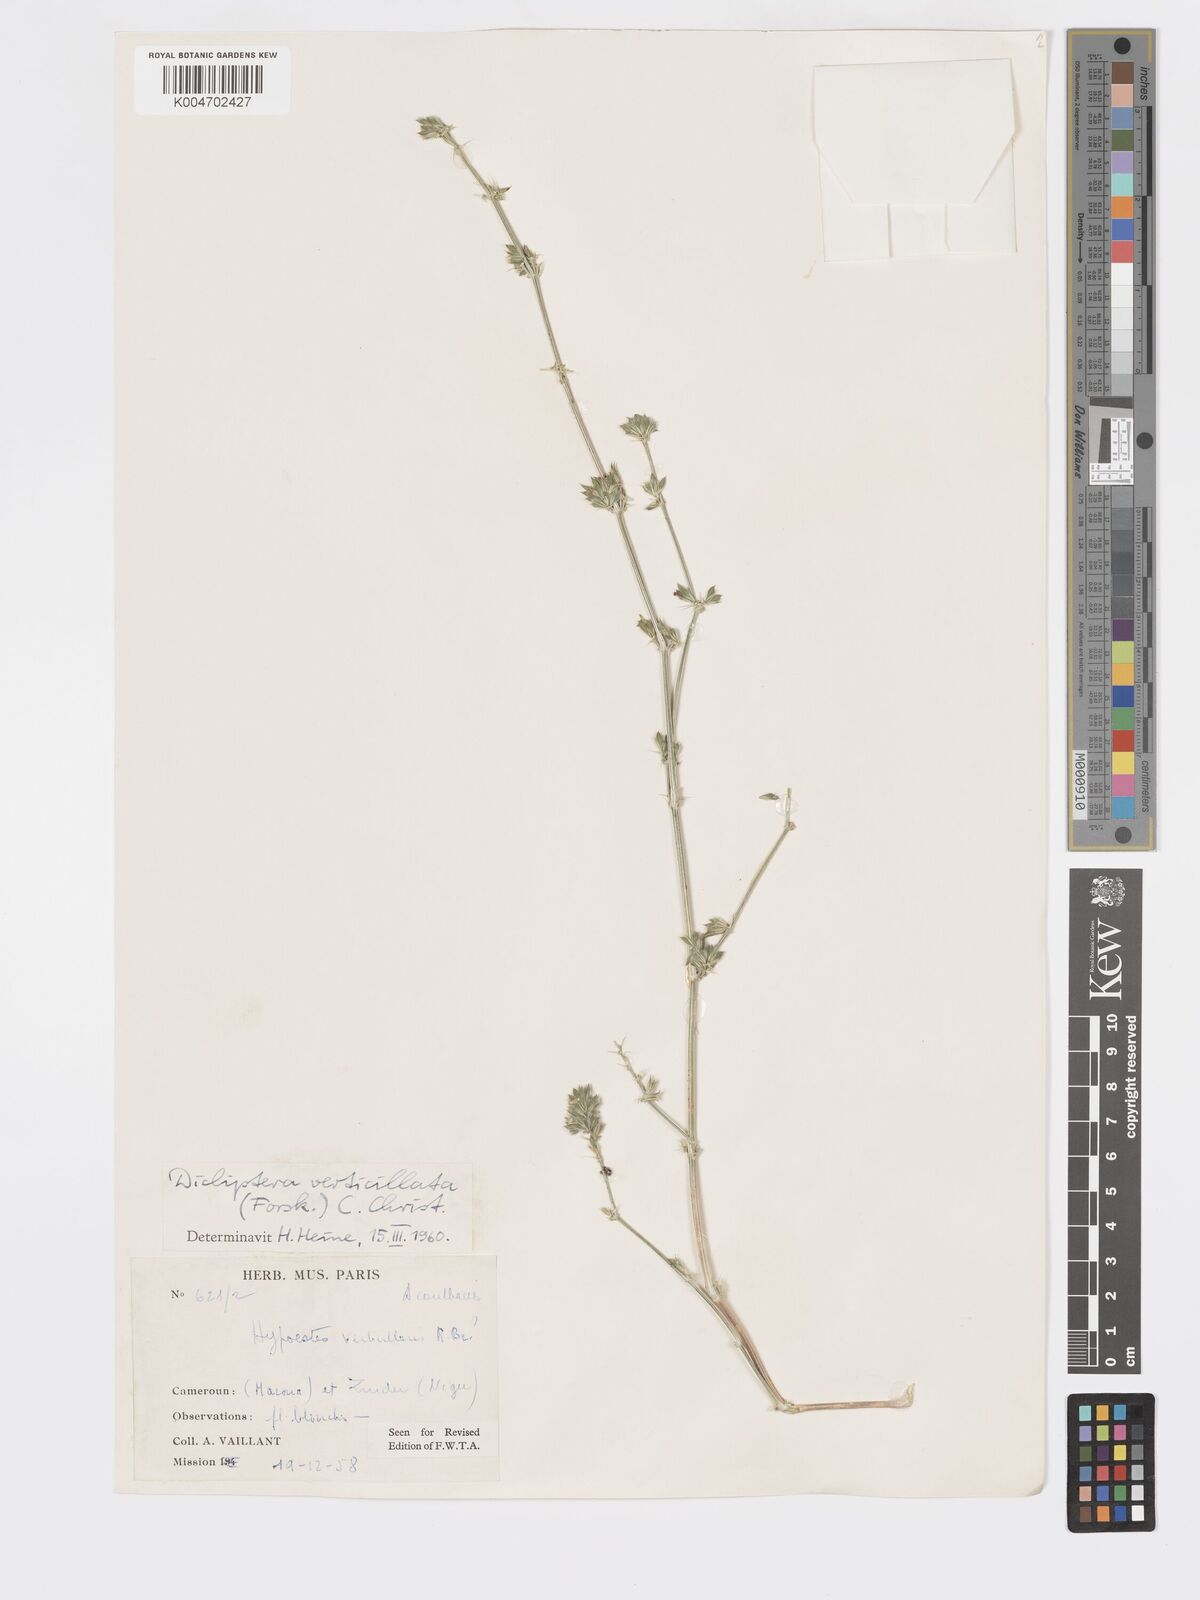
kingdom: Plantae
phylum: Tracheophyta
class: Magnoliopsida
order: Lamiales
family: Acanthaceae
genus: Dicliptera
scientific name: Dicliptera verticillata
